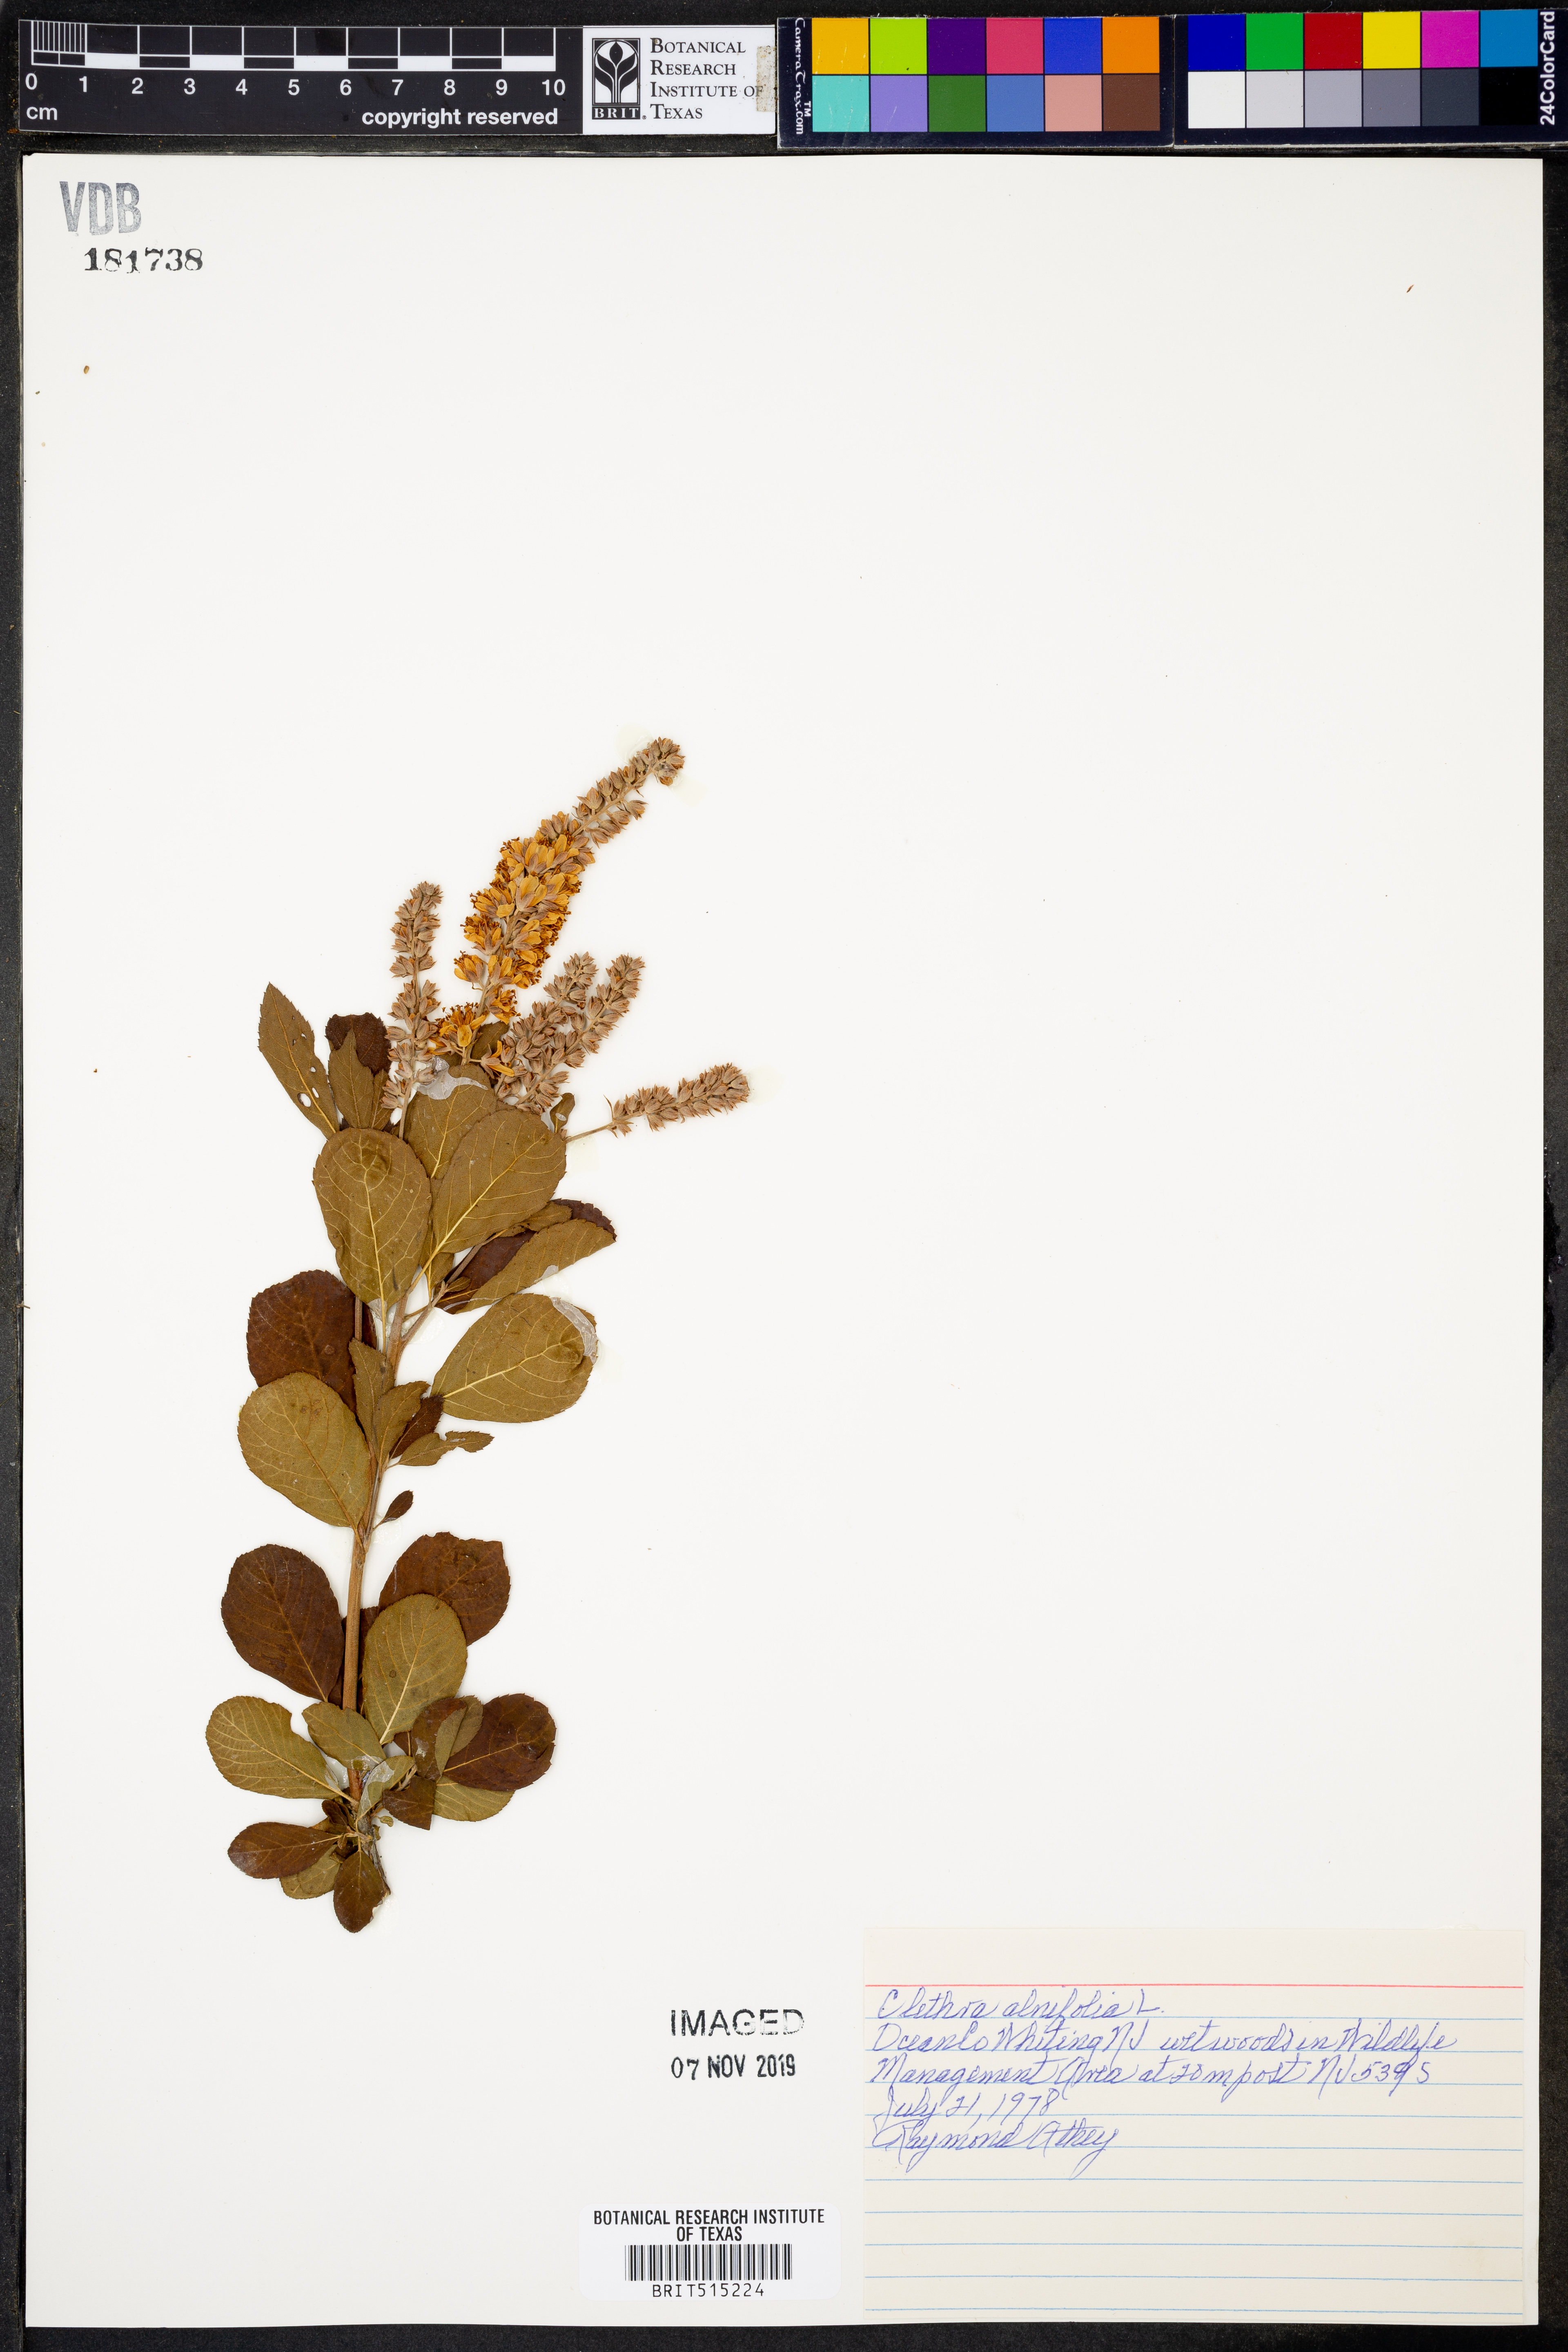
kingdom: Plantae
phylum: Tracheophyta
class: Magnoliopsida
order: Ericales
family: Clethraceae
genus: Clethra
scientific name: Clethra alnifolia
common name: Sweet pepperbush
